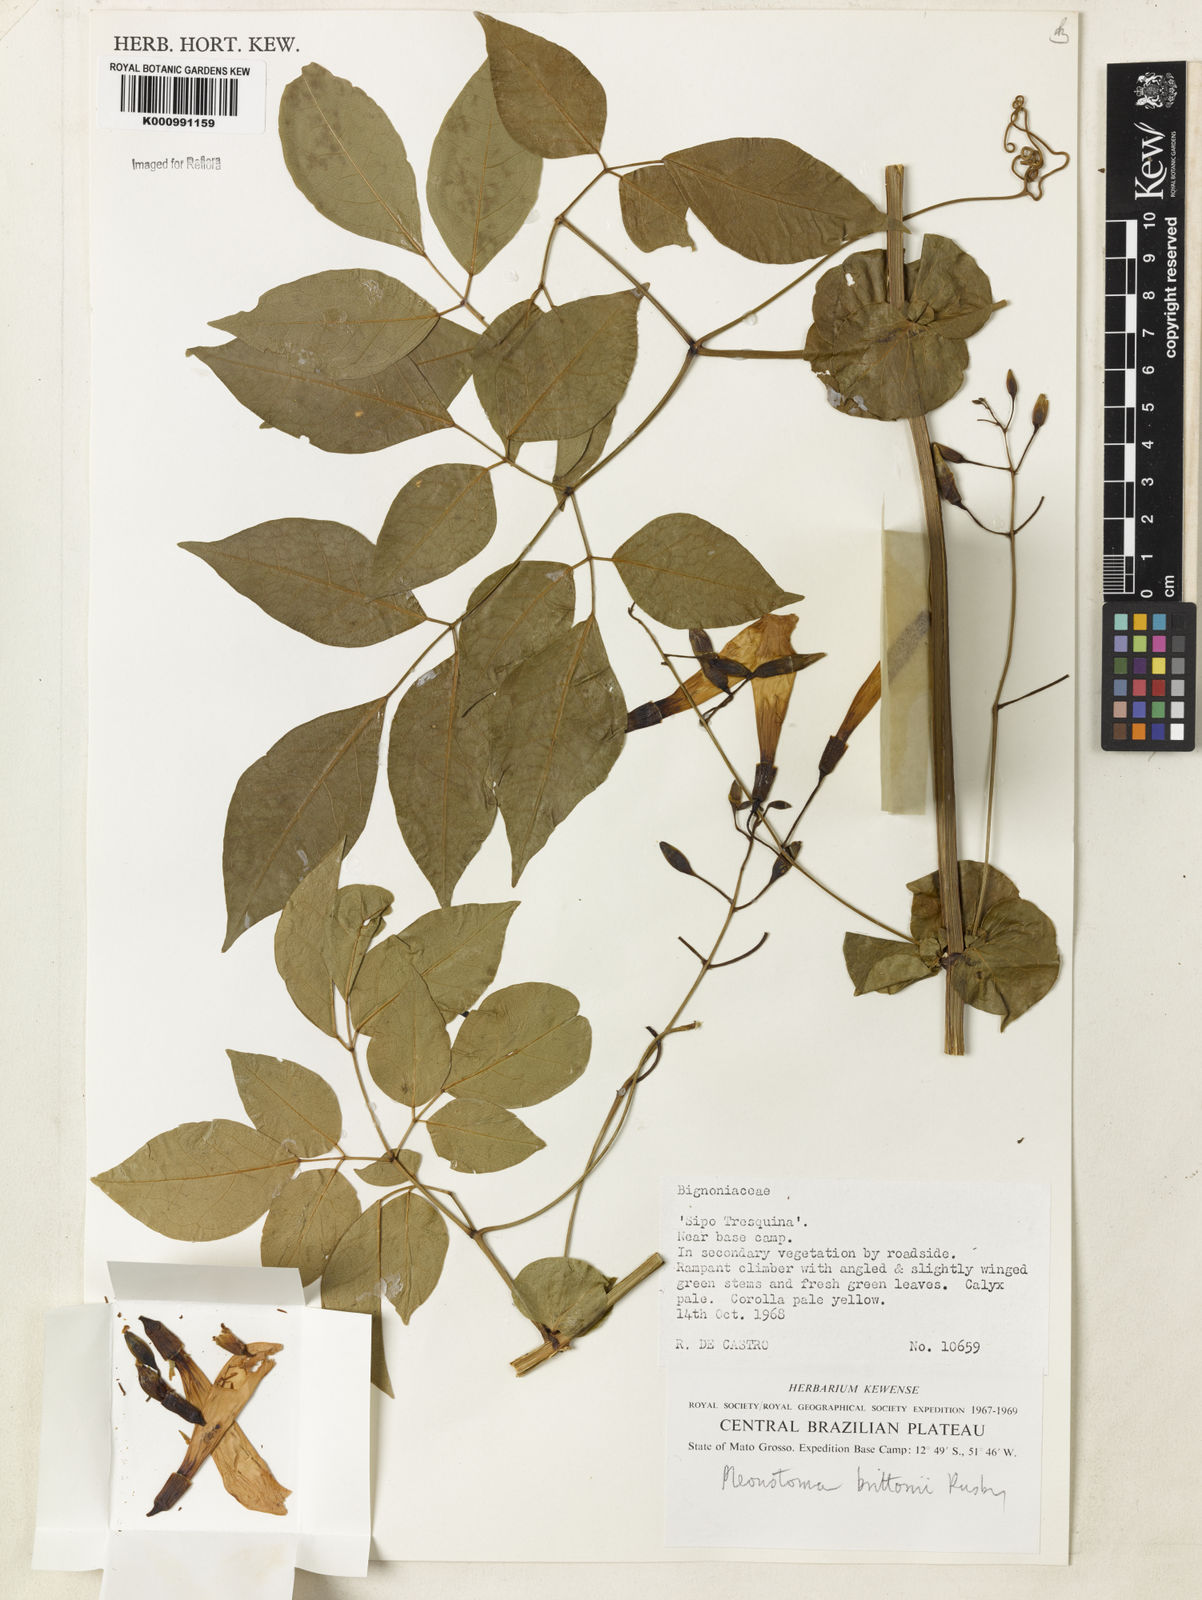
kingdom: Plantae
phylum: Tracheophyta
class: Magnoliopsida
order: Lamiales
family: Bignoniaceae
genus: Pleonotoma
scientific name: Pleonotoma jasminifolia
